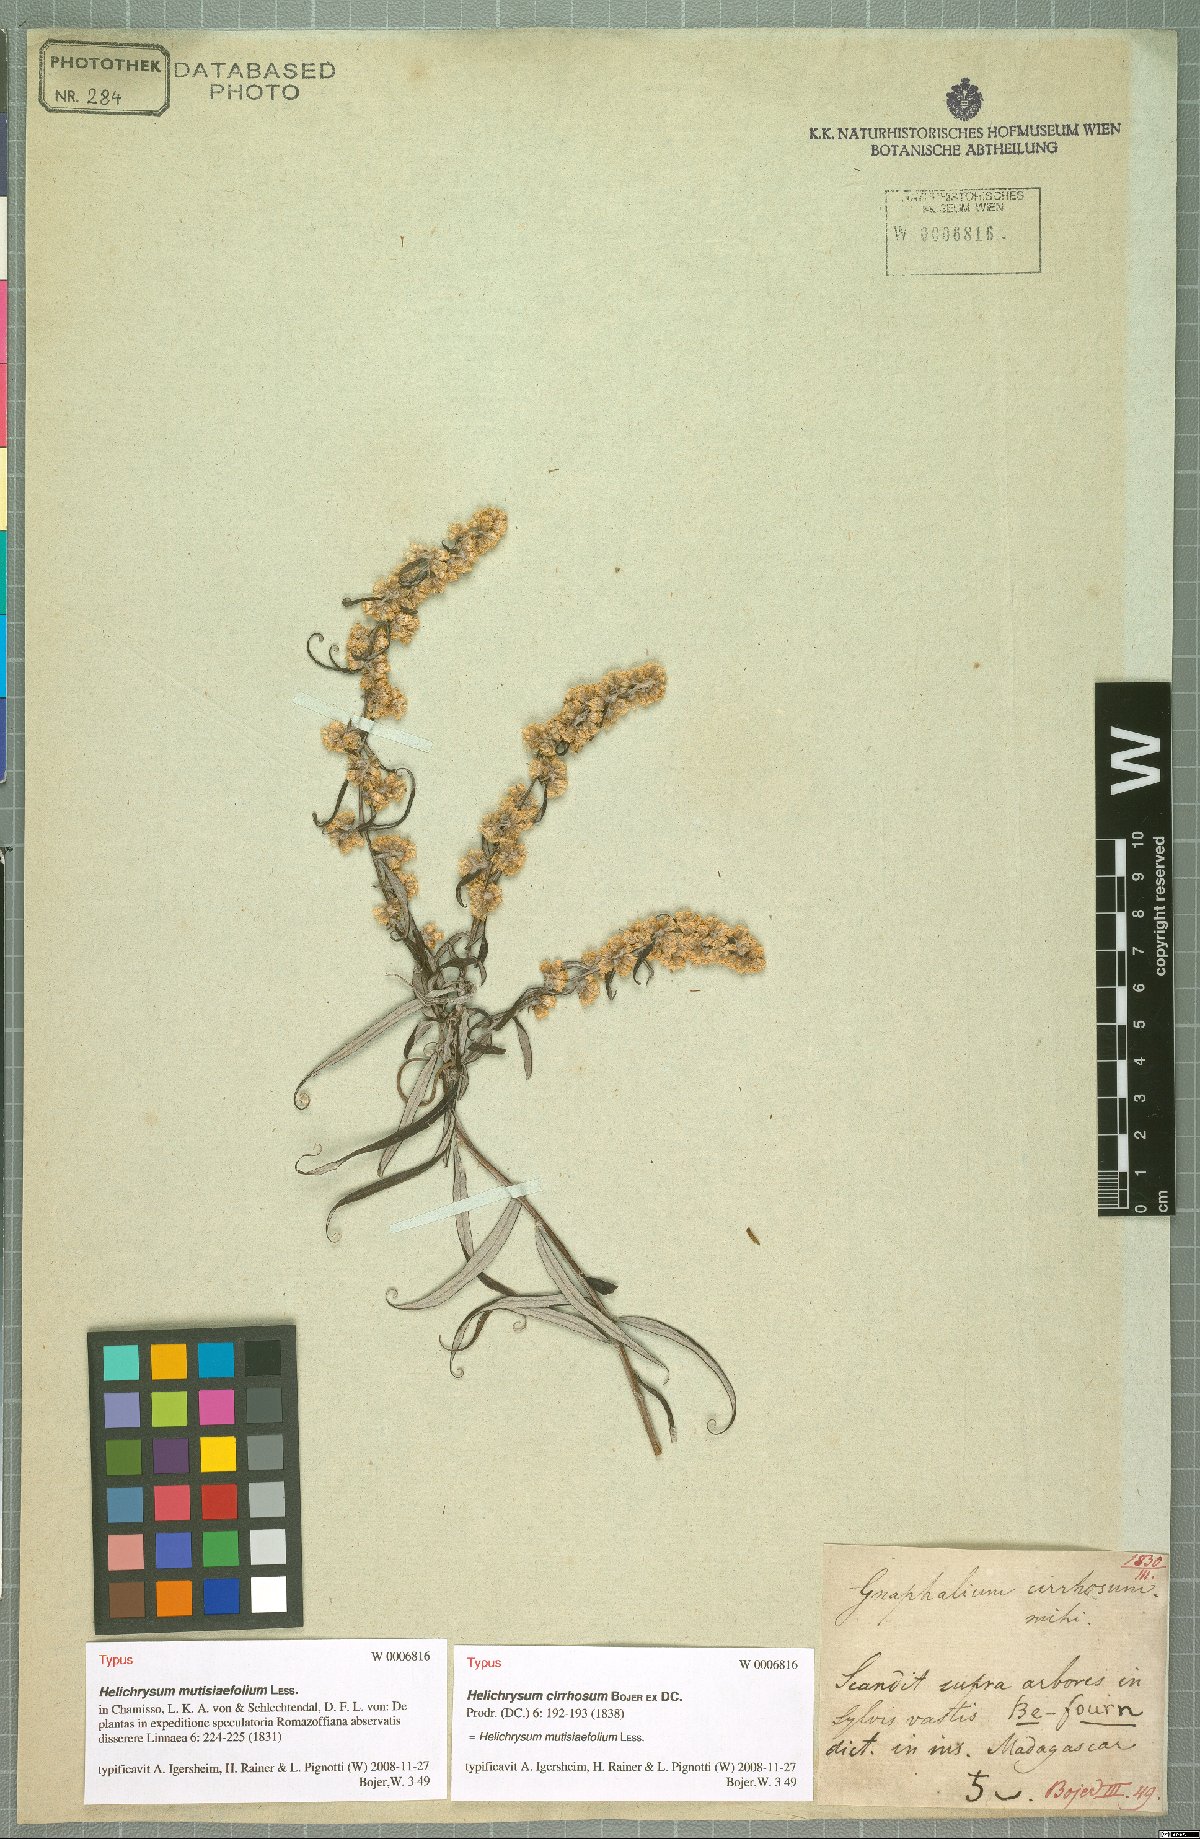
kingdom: Plantae
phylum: Tracheophyta
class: Magnoliopsida
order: Asterales
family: Asteraceae
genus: Helichrysum
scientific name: Helichrysum mutisiaefolium
